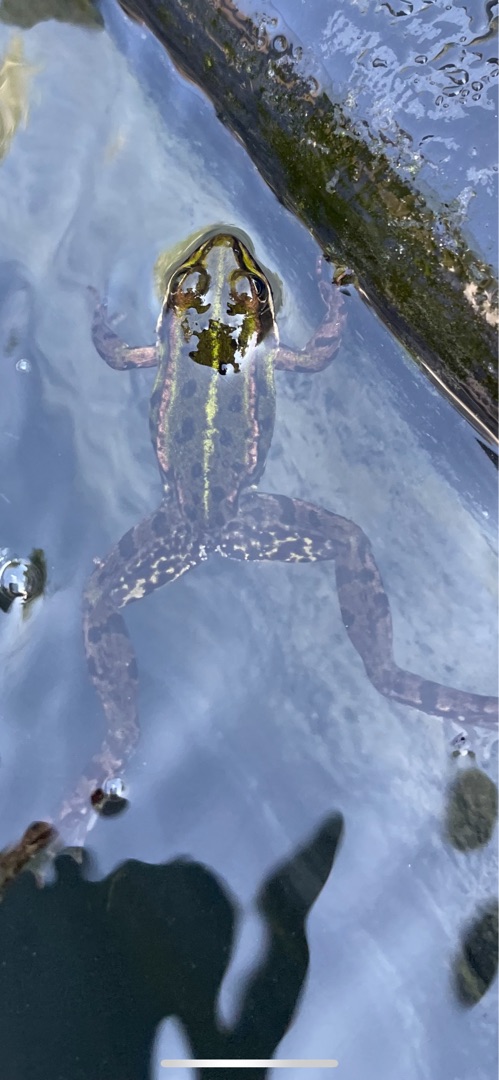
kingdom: Animalia
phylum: Chordata
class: Amphibia
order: Anura
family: Ranidae
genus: Pelophylax
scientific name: Pelophylax lessonae
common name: Grøn frø
